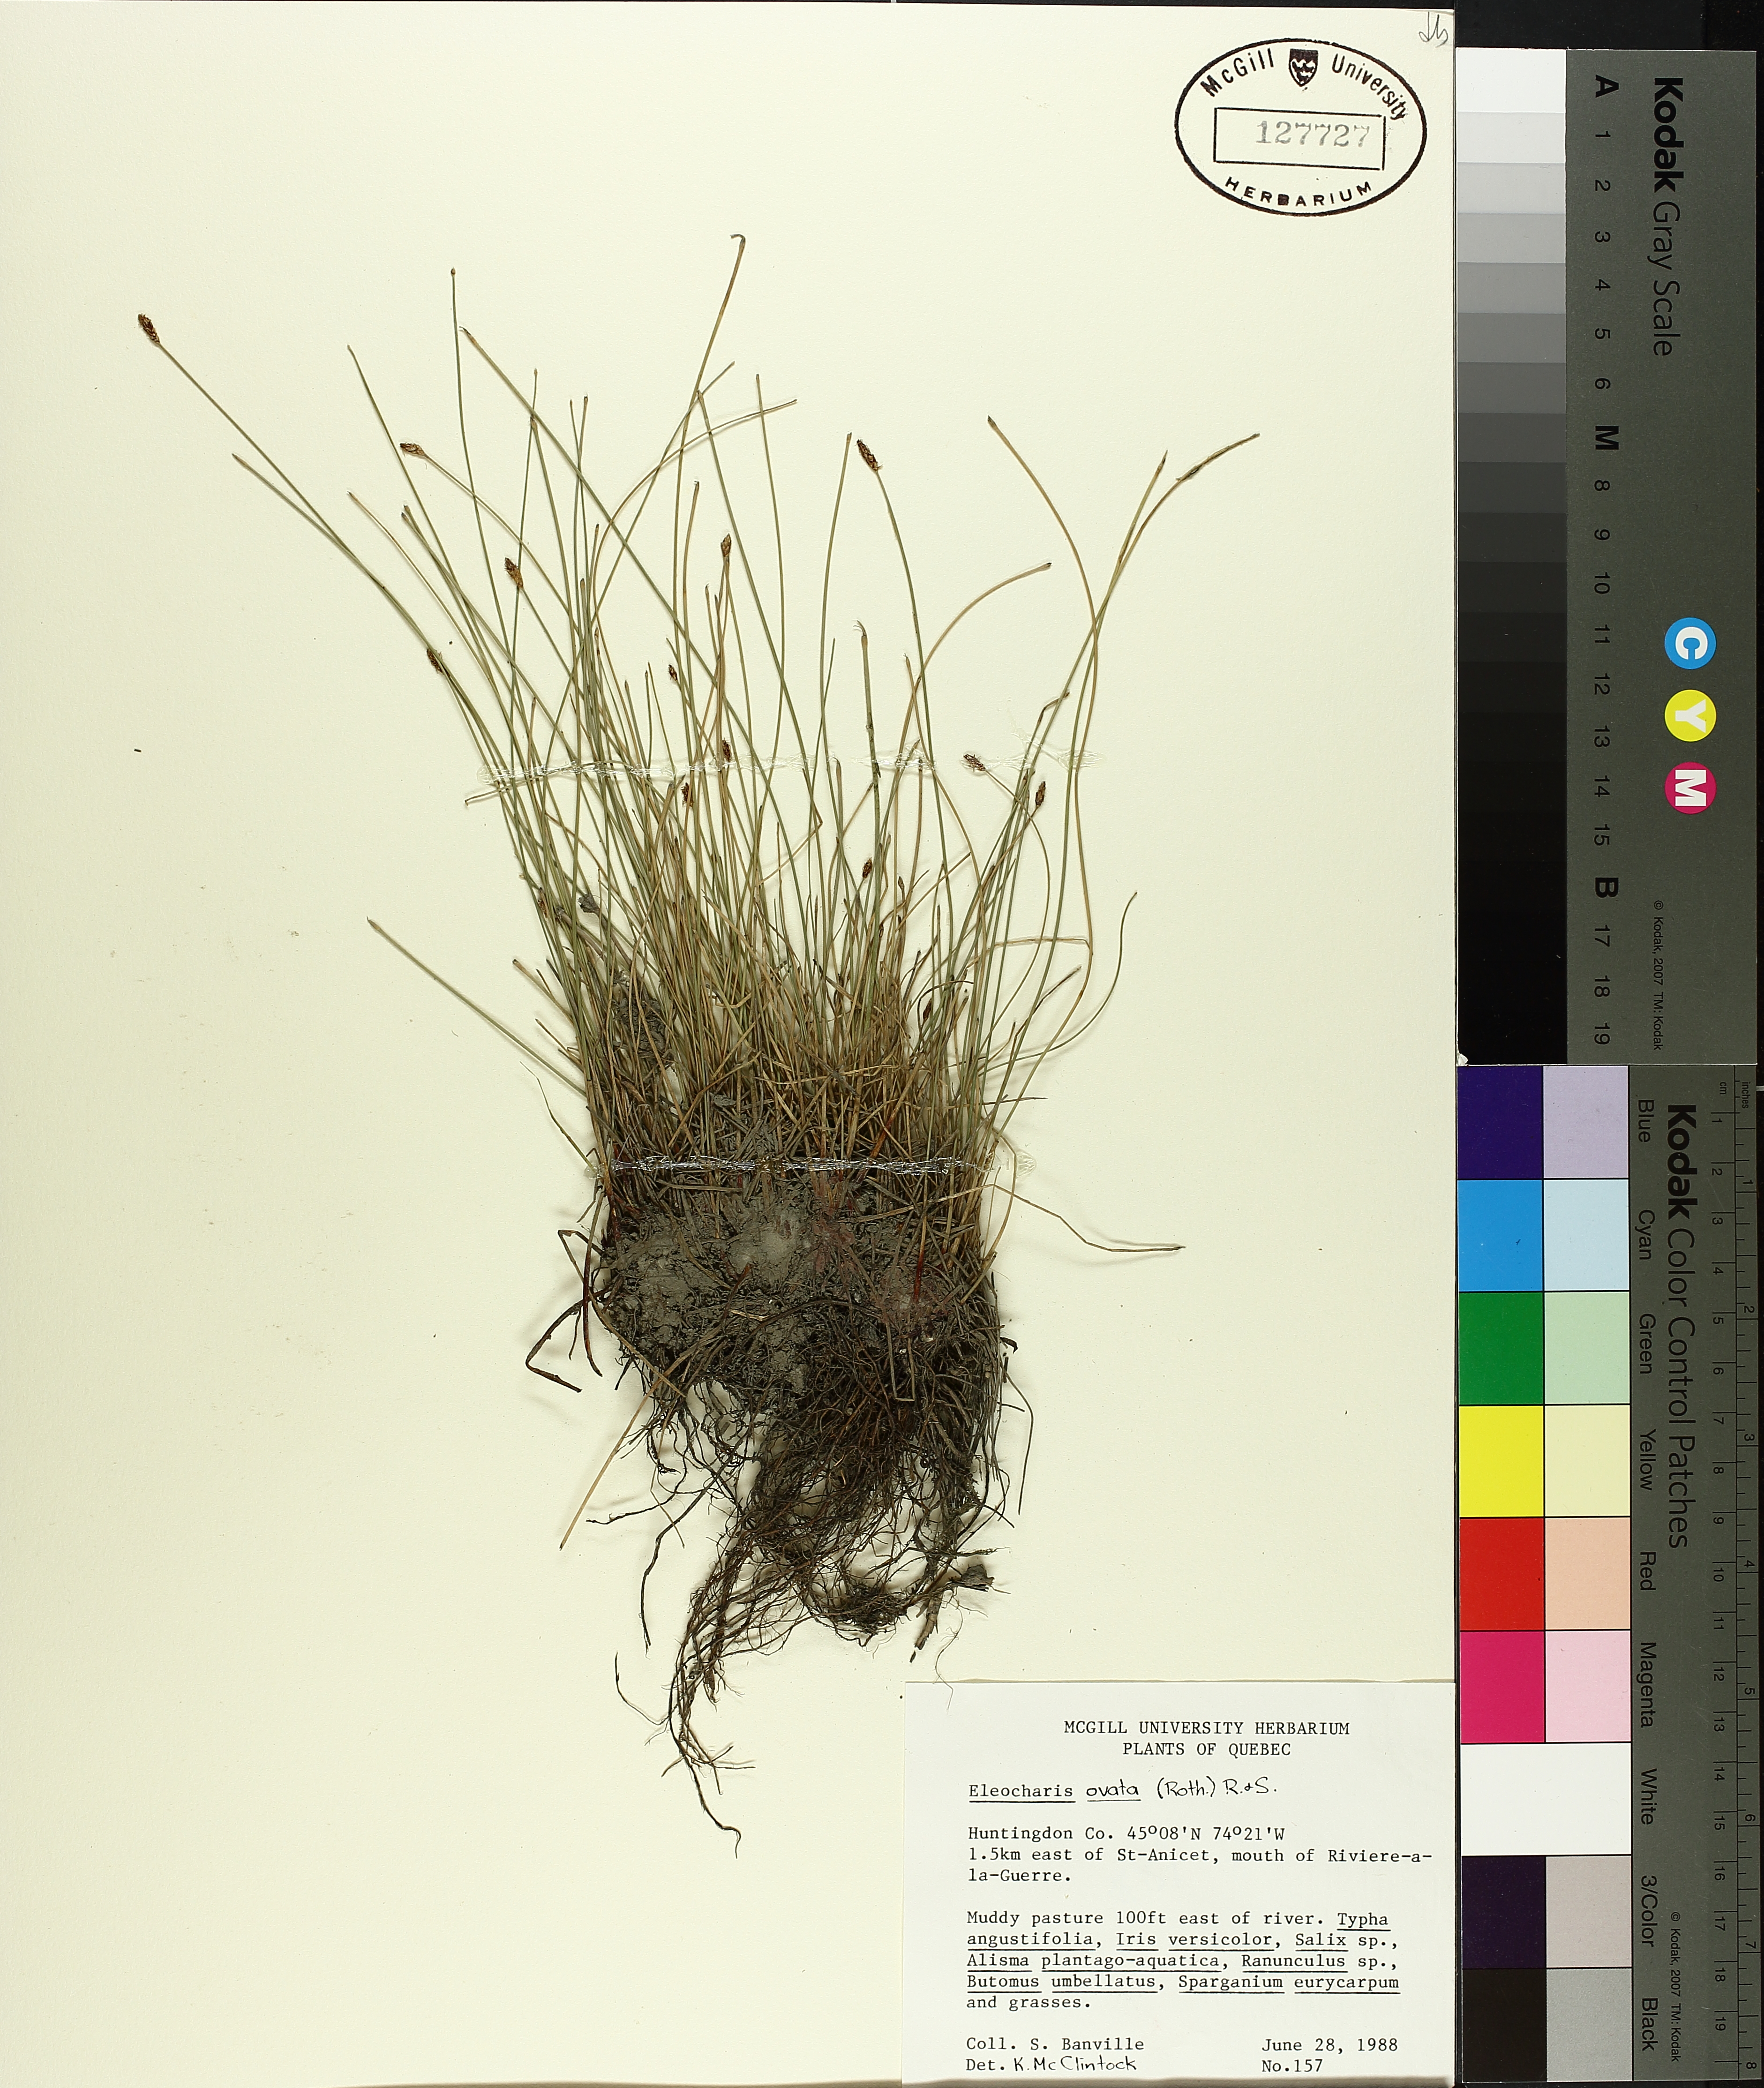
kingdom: Plantae
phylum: Tracheophyta
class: Liliopsida
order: Poales
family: Cyperaceae
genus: Eleocharis
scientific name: Eleocharis ovata
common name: Oval spike-rush
